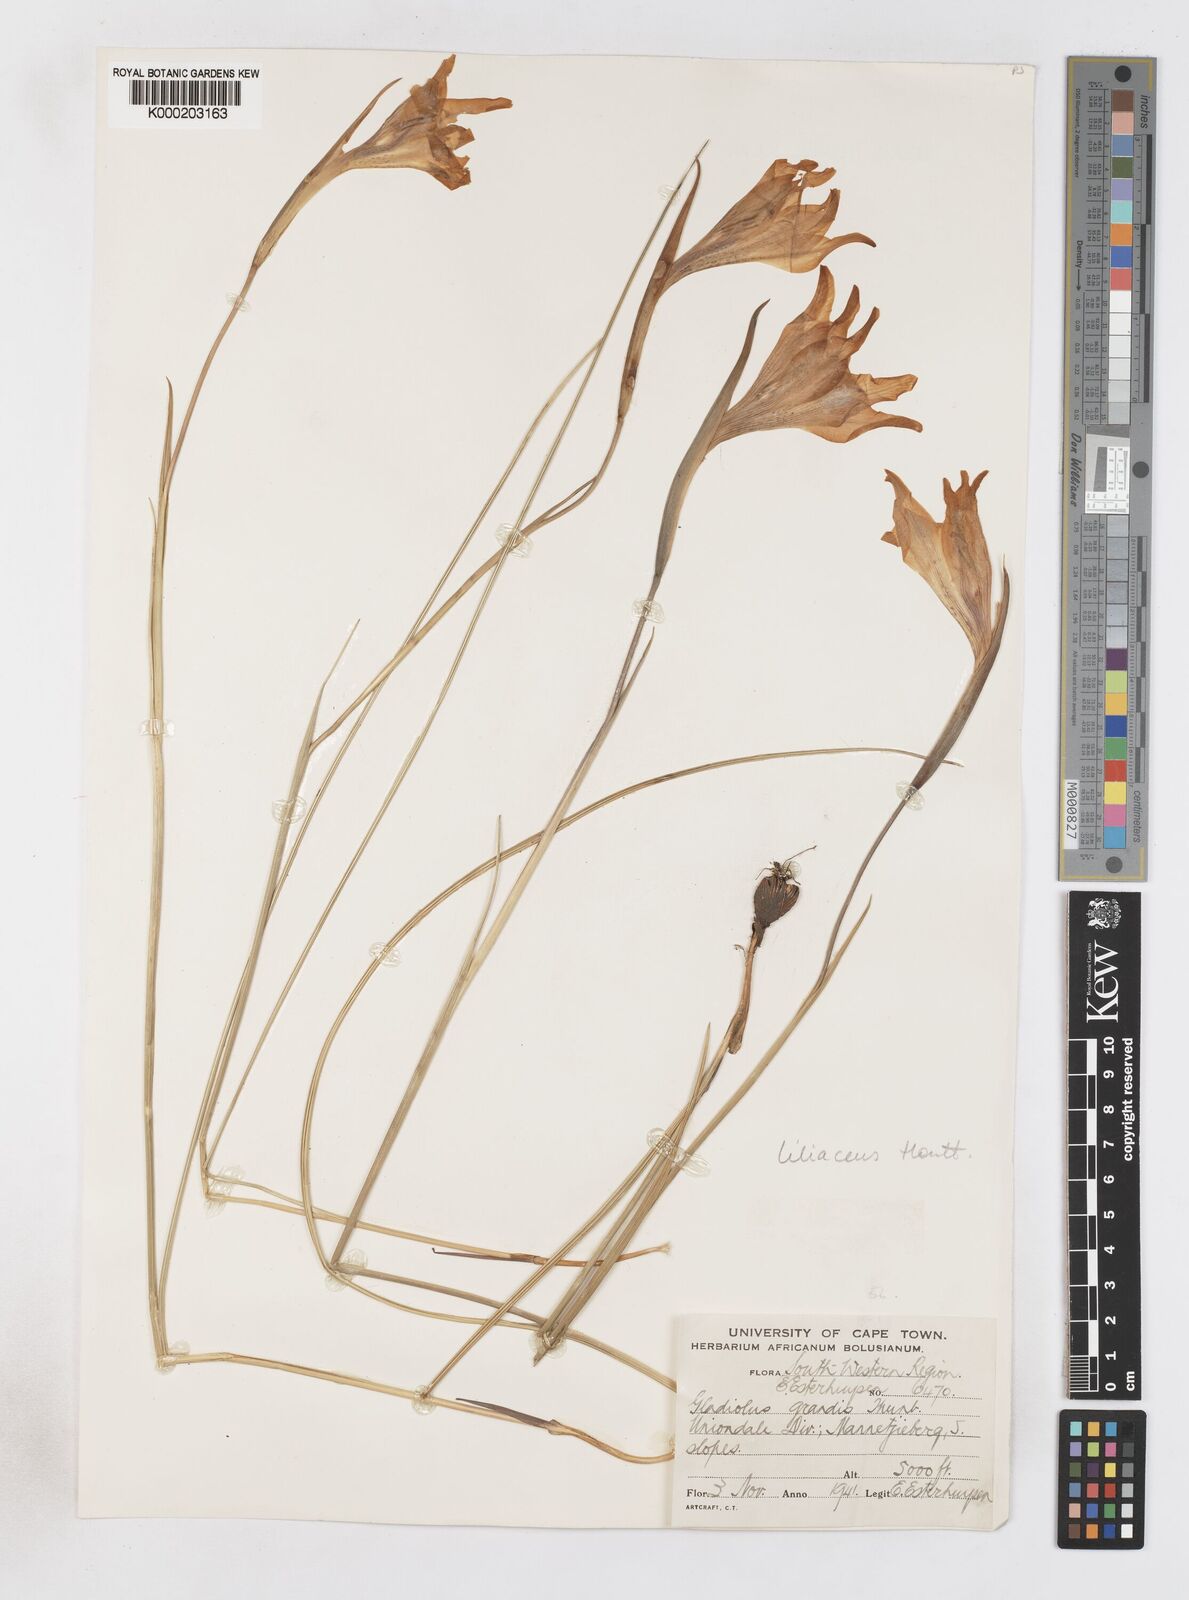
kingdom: Plantae
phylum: Tracheophyta
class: Liliopsida
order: Asparagales
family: Iridaceae
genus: Gladiolus
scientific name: Gladiolus liliaceus
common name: Large brown afrikaner
